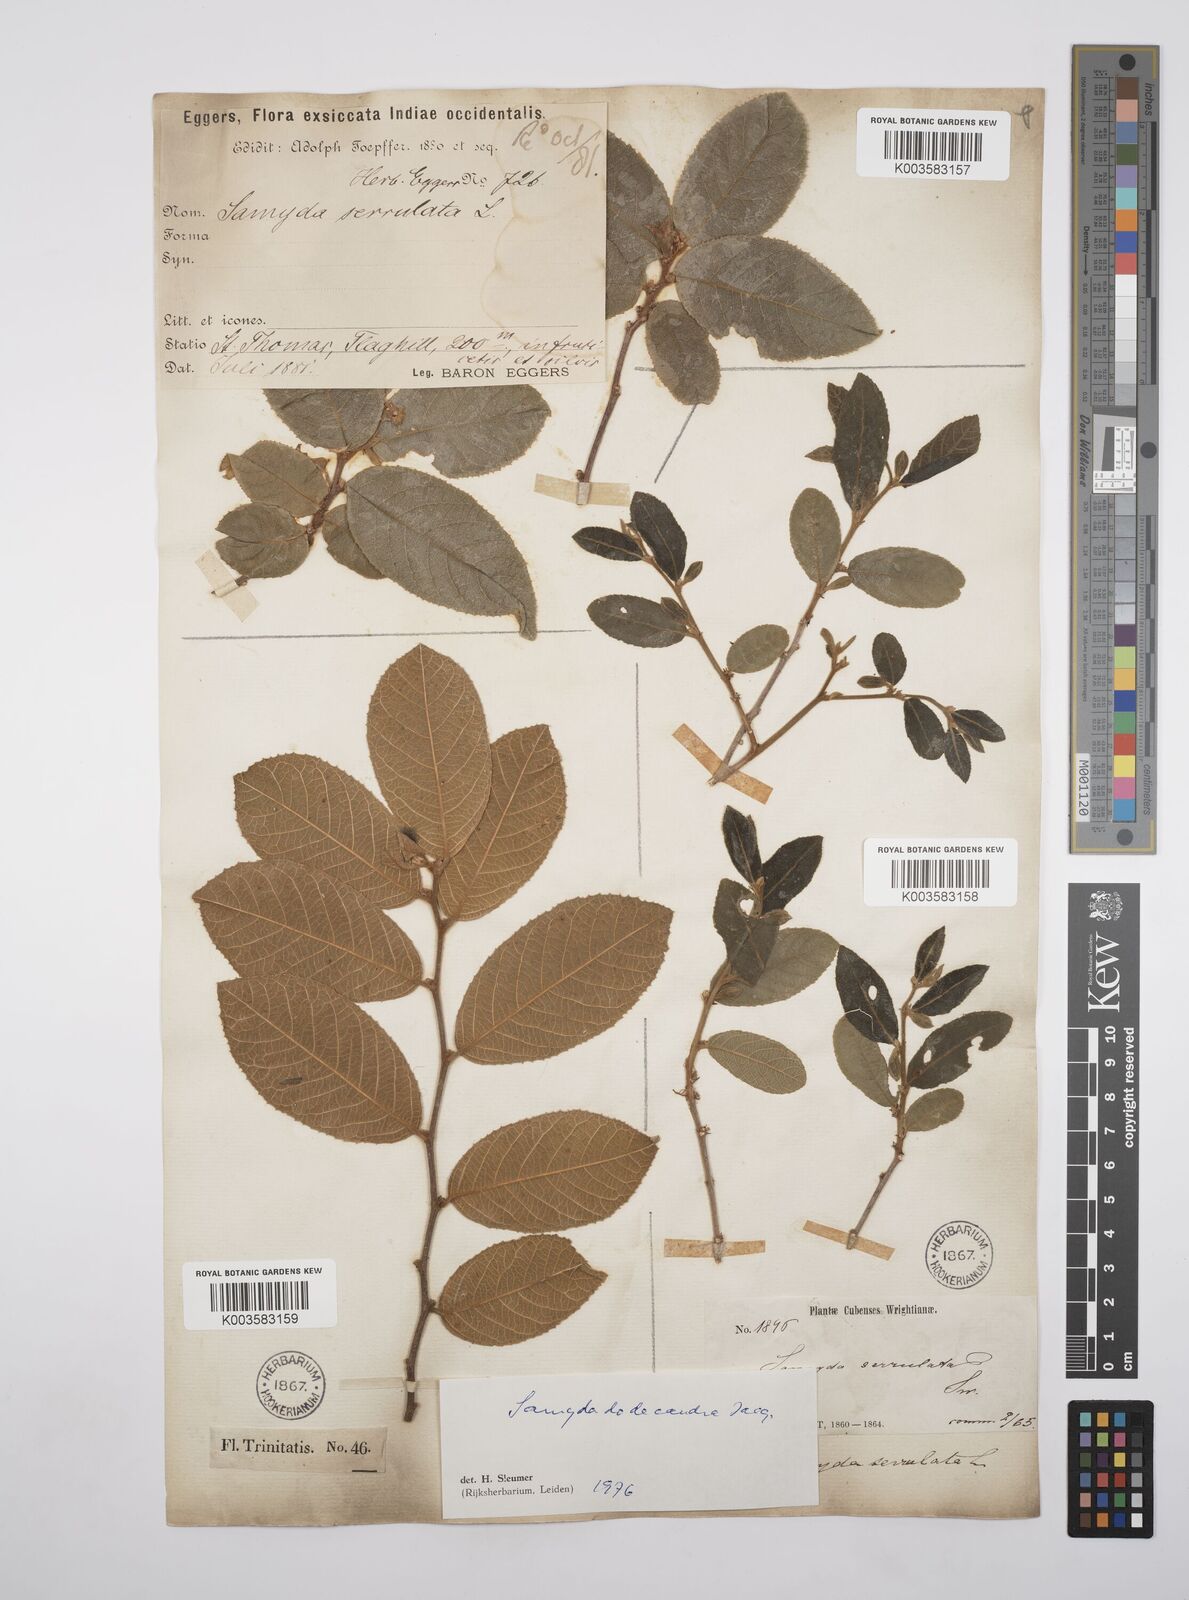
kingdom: Plantae
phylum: Tracheophyta
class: Magnoliopsida
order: Malpighiales
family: Salicaceae
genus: Casearia
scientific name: Casearia dodecandra
